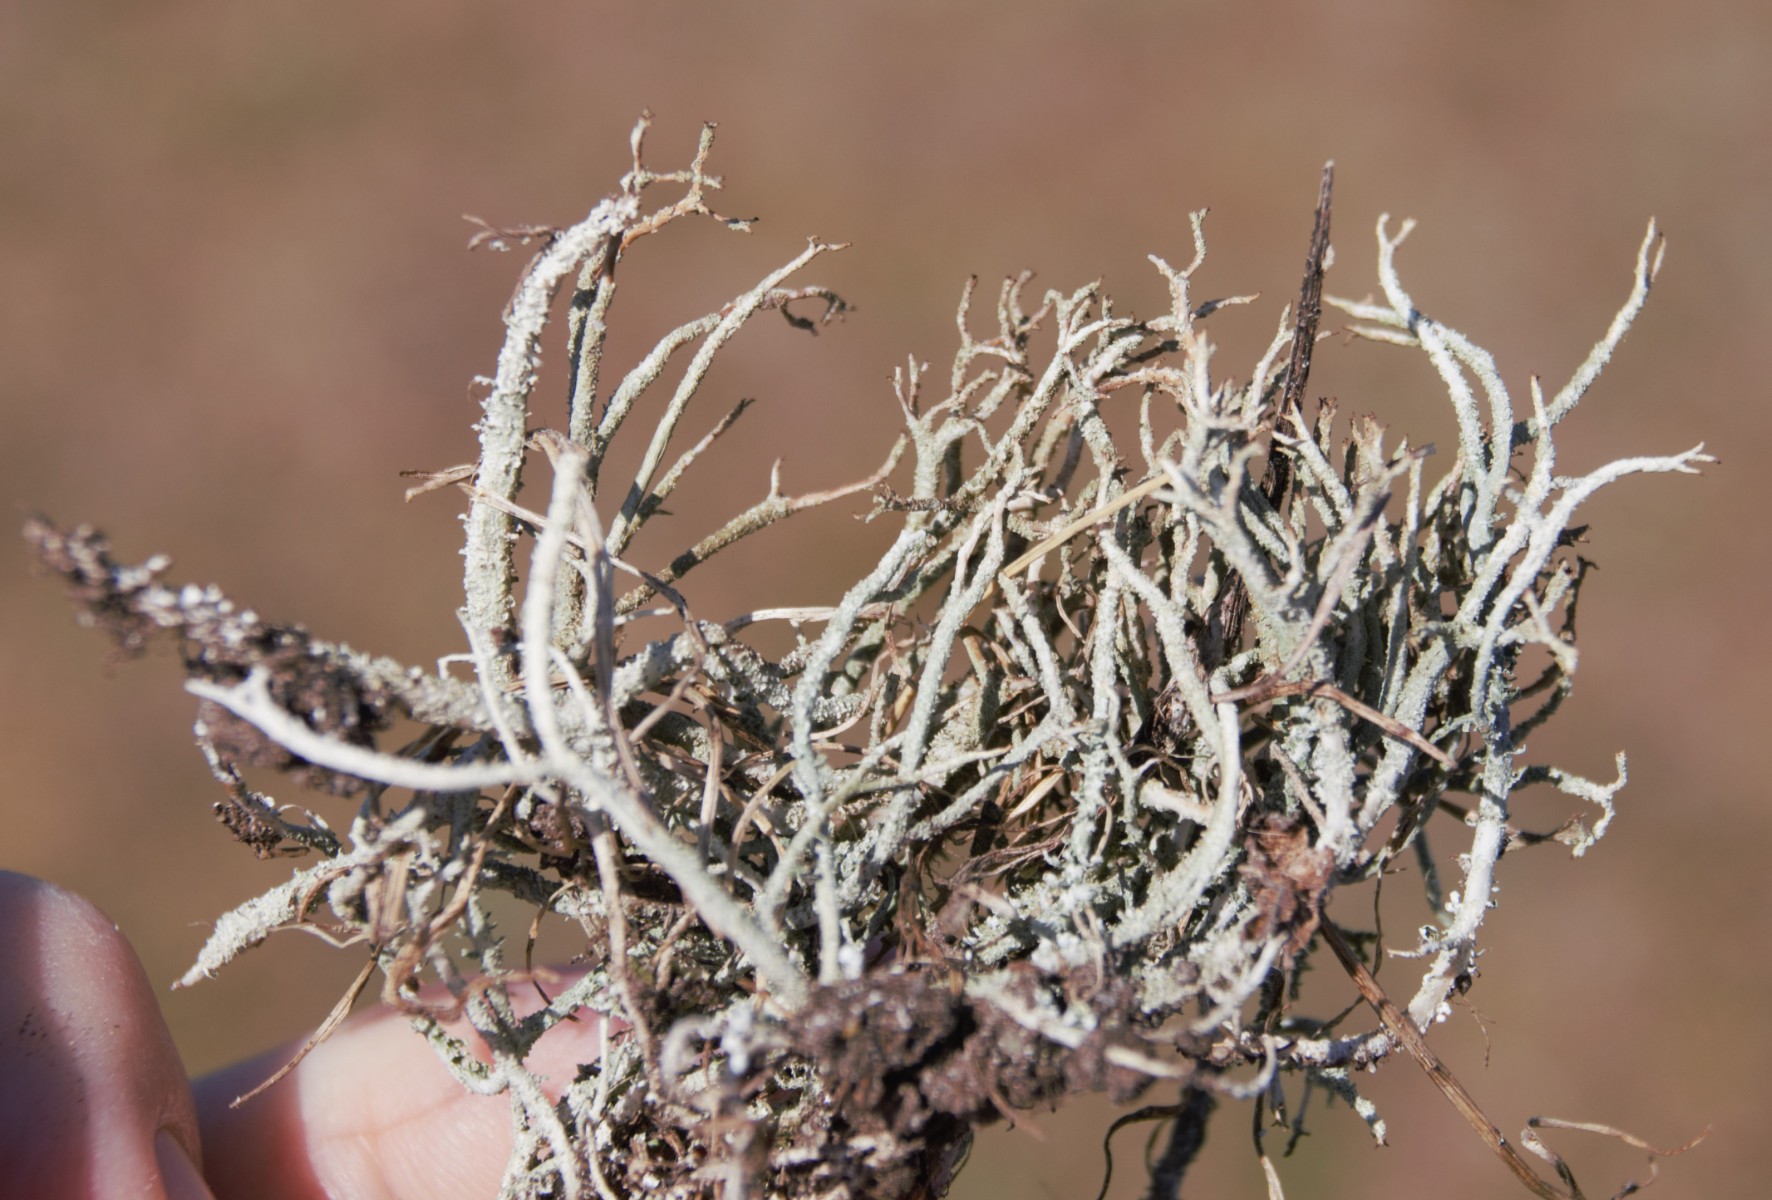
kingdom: Fungi
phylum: Ascomycota
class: Lecanoromycetes
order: Lecanorales
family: Cladoniaceae
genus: Cladonia
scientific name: Cladonia scabriuscula
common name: ru bægerlav
